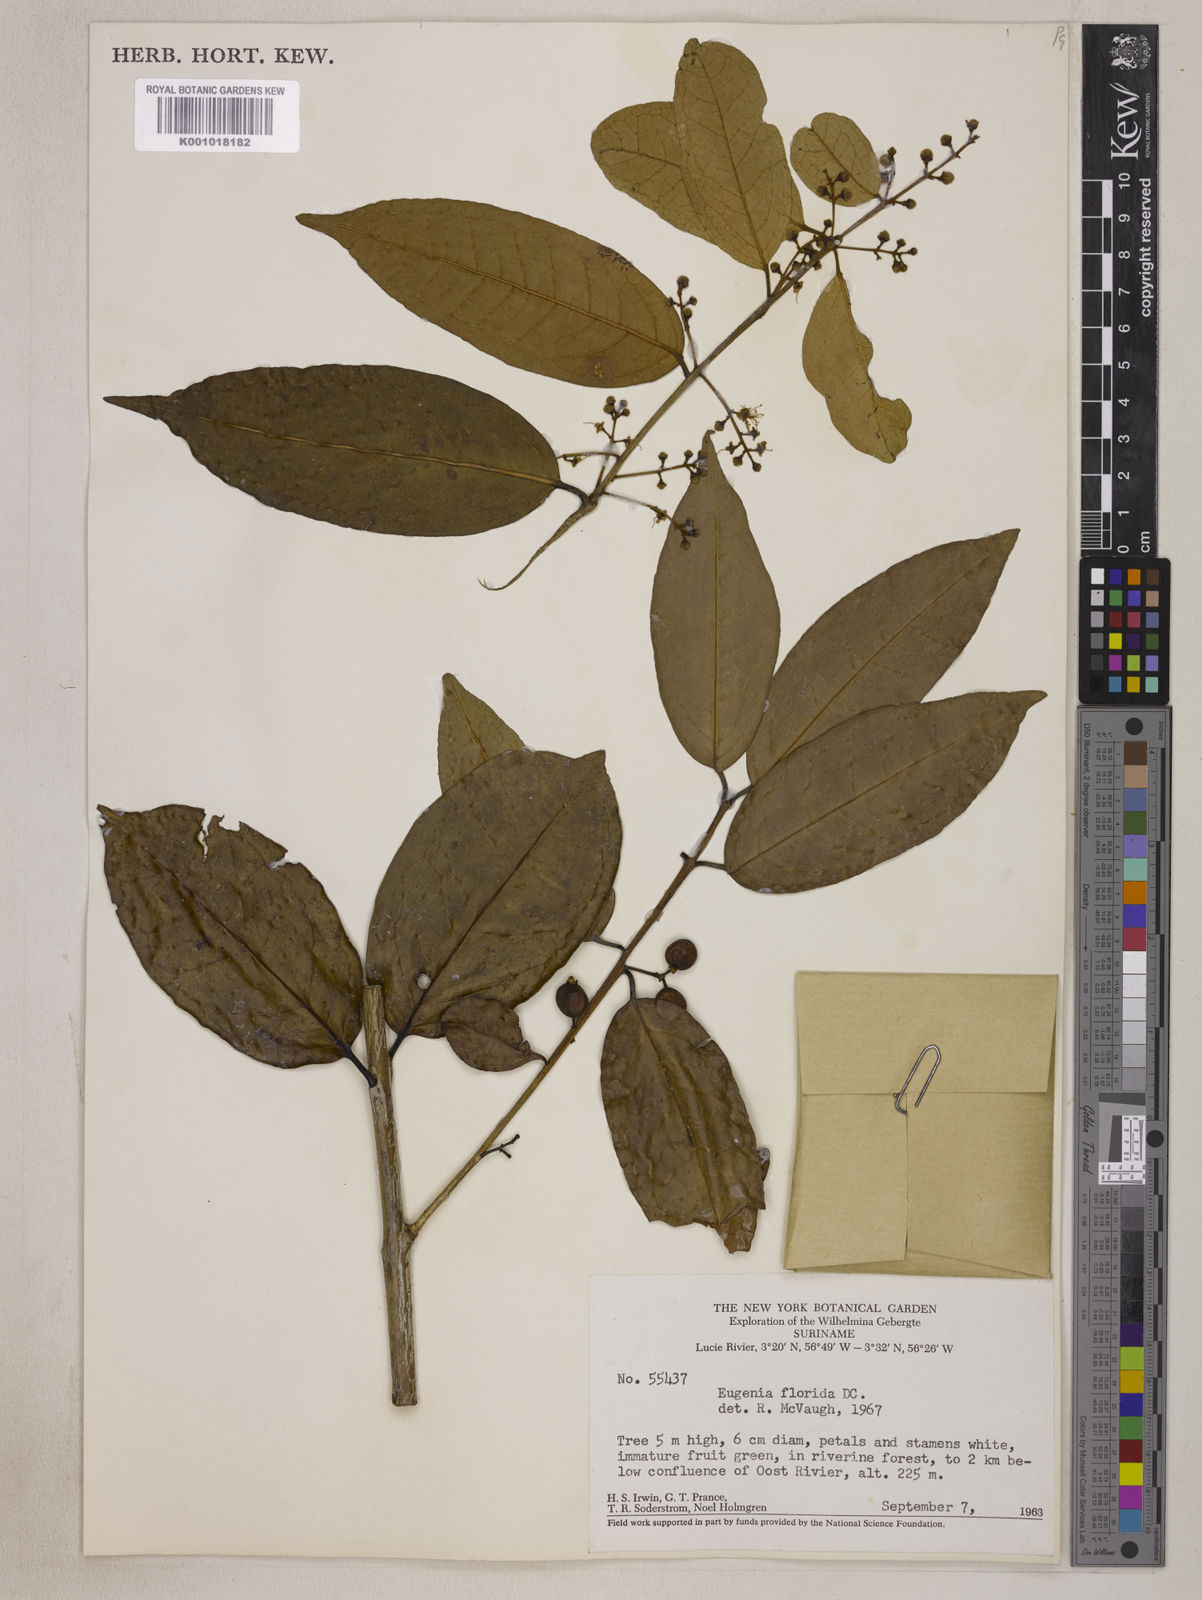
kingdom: Plantae
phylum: Tracheophyta
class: Magnoliopsida
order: Myrtales
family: Myrtaceae
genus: Eugenia
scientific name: Eugenia florida
